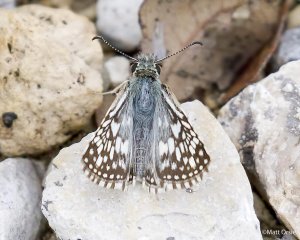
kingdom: Animalia
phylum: Arthropoda
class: Insecta
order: Lepidoptera
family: Hesperiidae
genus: Pyrgus
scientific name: Pyrgus oileus
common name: Desert Checkered-Skipper
